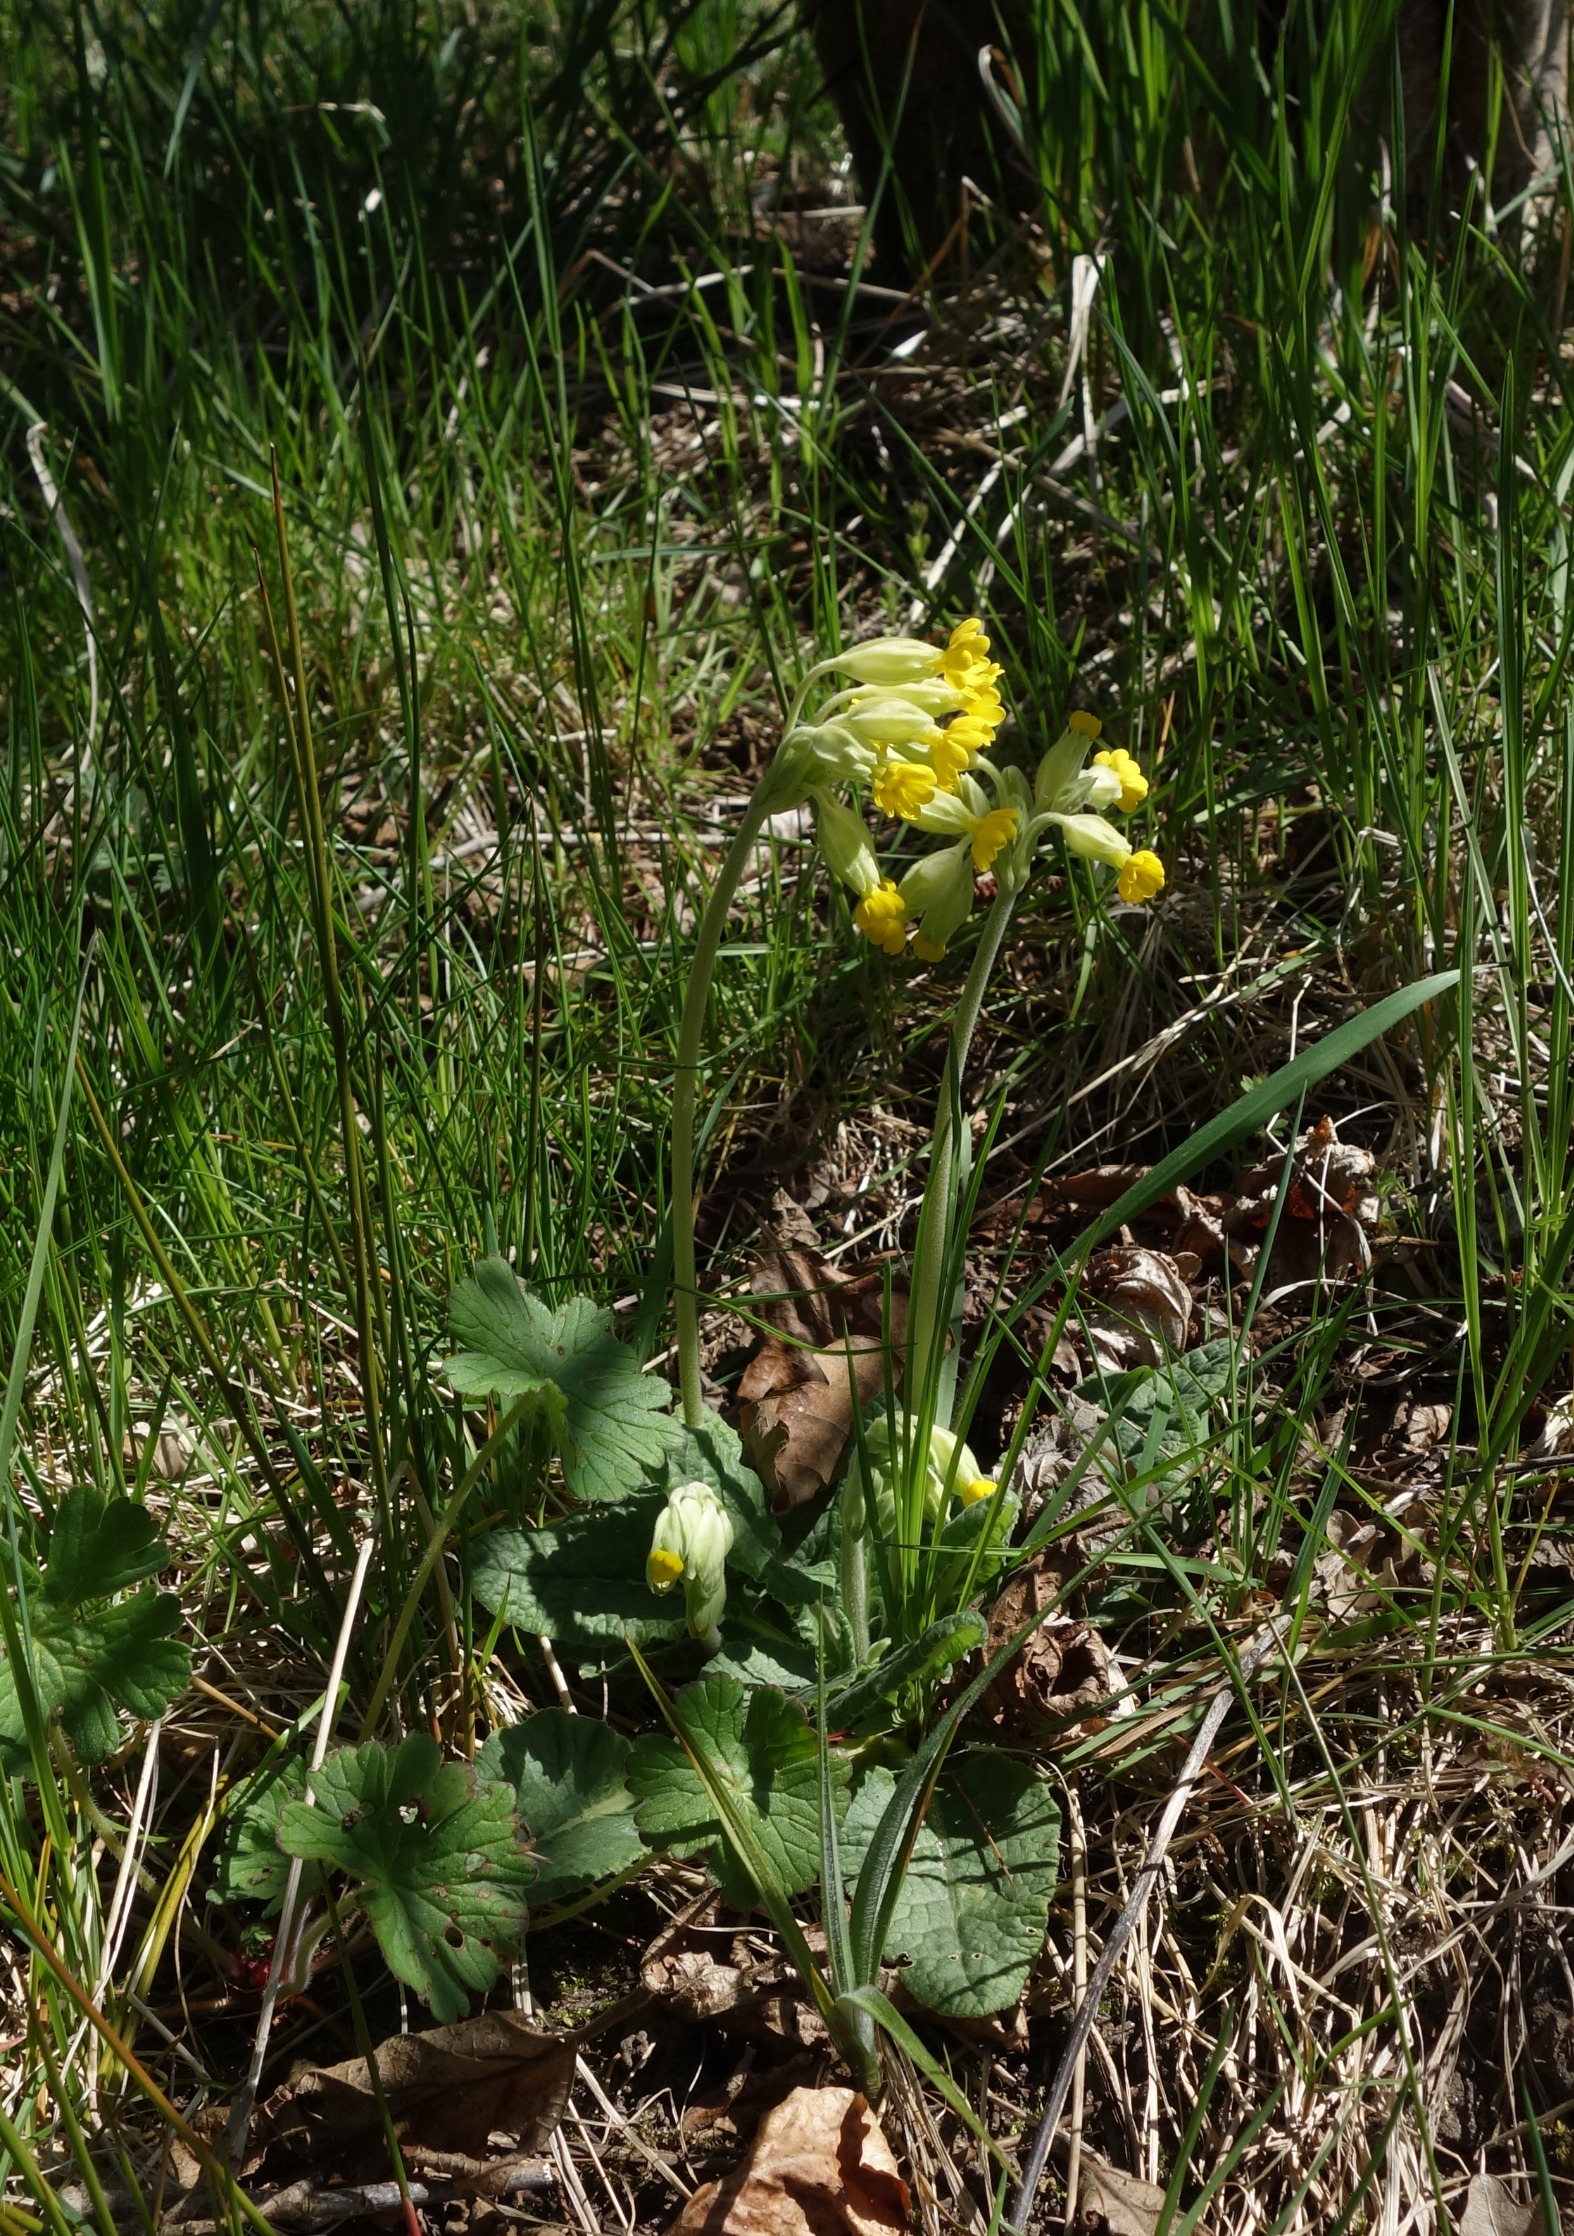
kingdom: Plantae
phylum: Tracheophyta
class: Magnoliopsida
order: Ericales
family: Primulaceae
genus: Primula
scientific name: Primula veris
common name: Hulkravet kodriver
